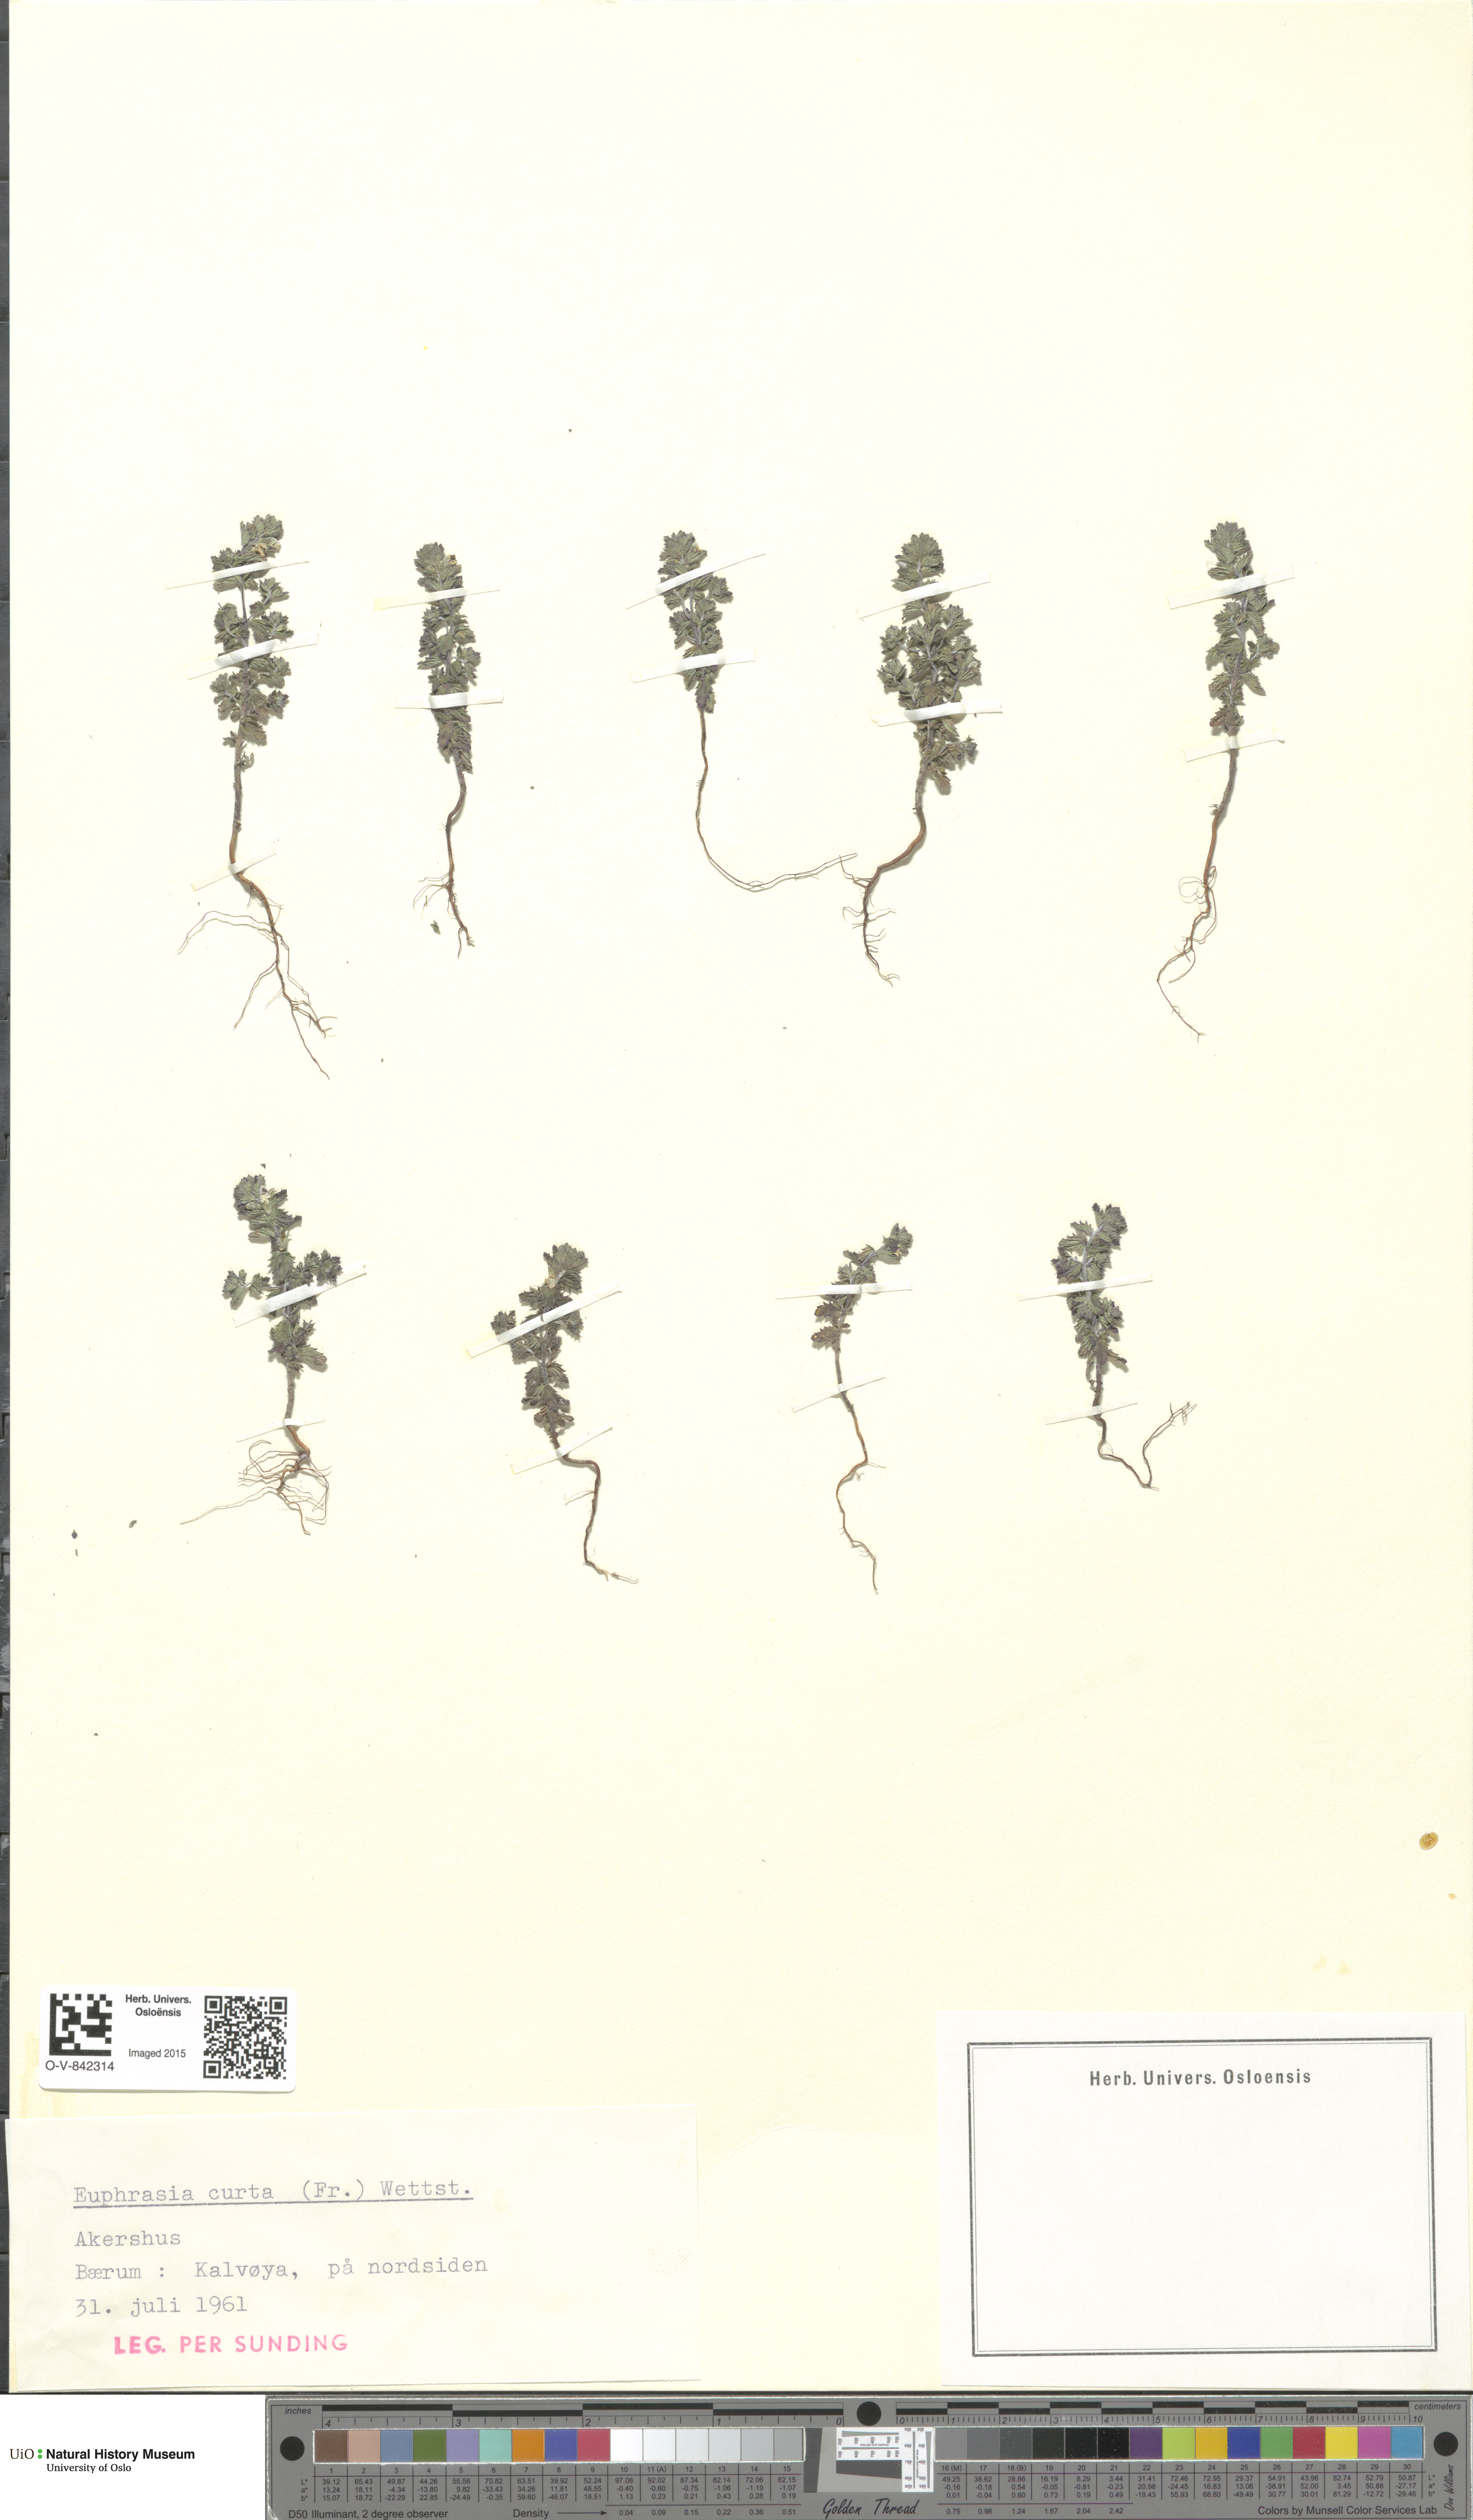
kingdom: Plantae
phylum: Tracheophyta
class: Magnoliopsida
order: Lamiales
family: Orobanchaceae
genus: Euphrasia
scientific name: Euphrasia micrantha
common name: Northern eyebright
